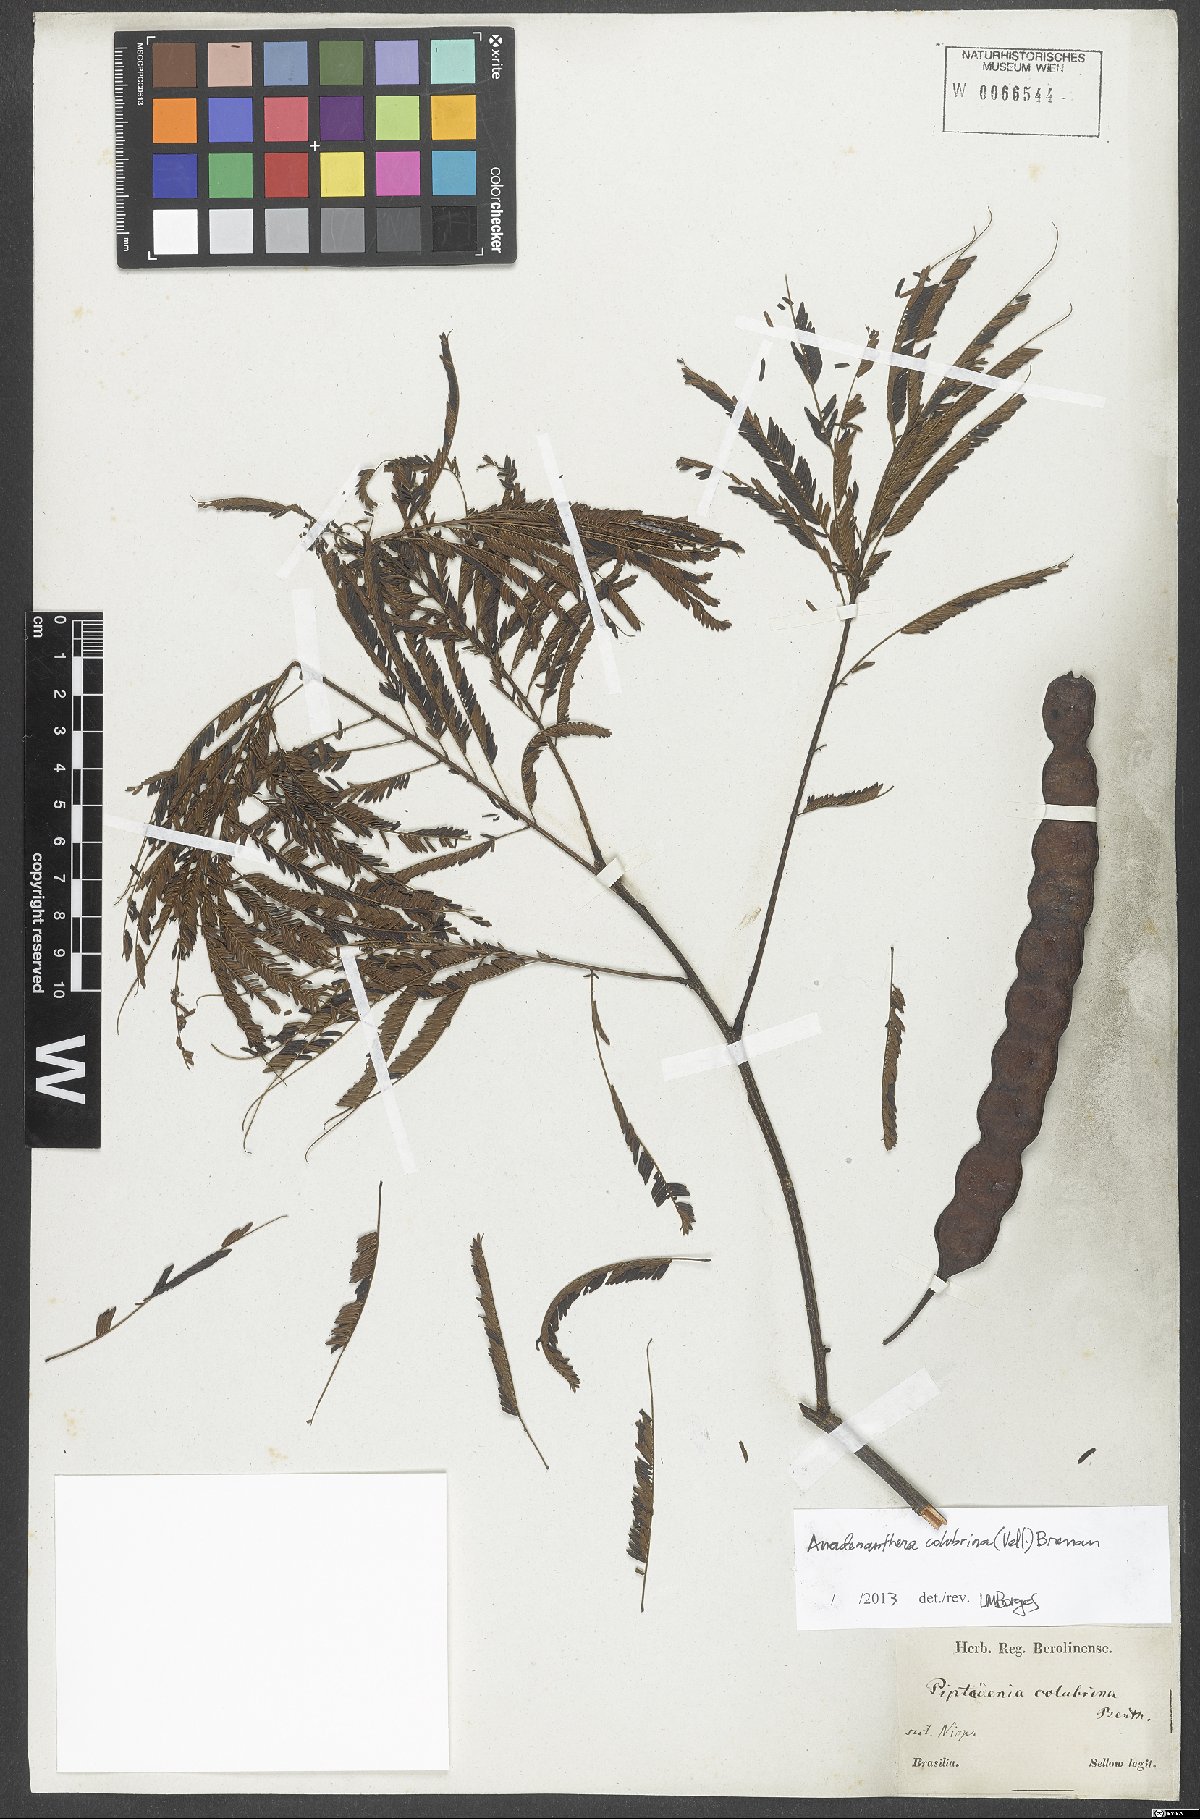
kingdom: Plantae
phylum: Tracheophyta
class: Magnoliopsida
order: Fabales
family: Fabaceae
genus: Anadenanthera
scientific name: Anadenanthera colubrina
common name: Curupay
